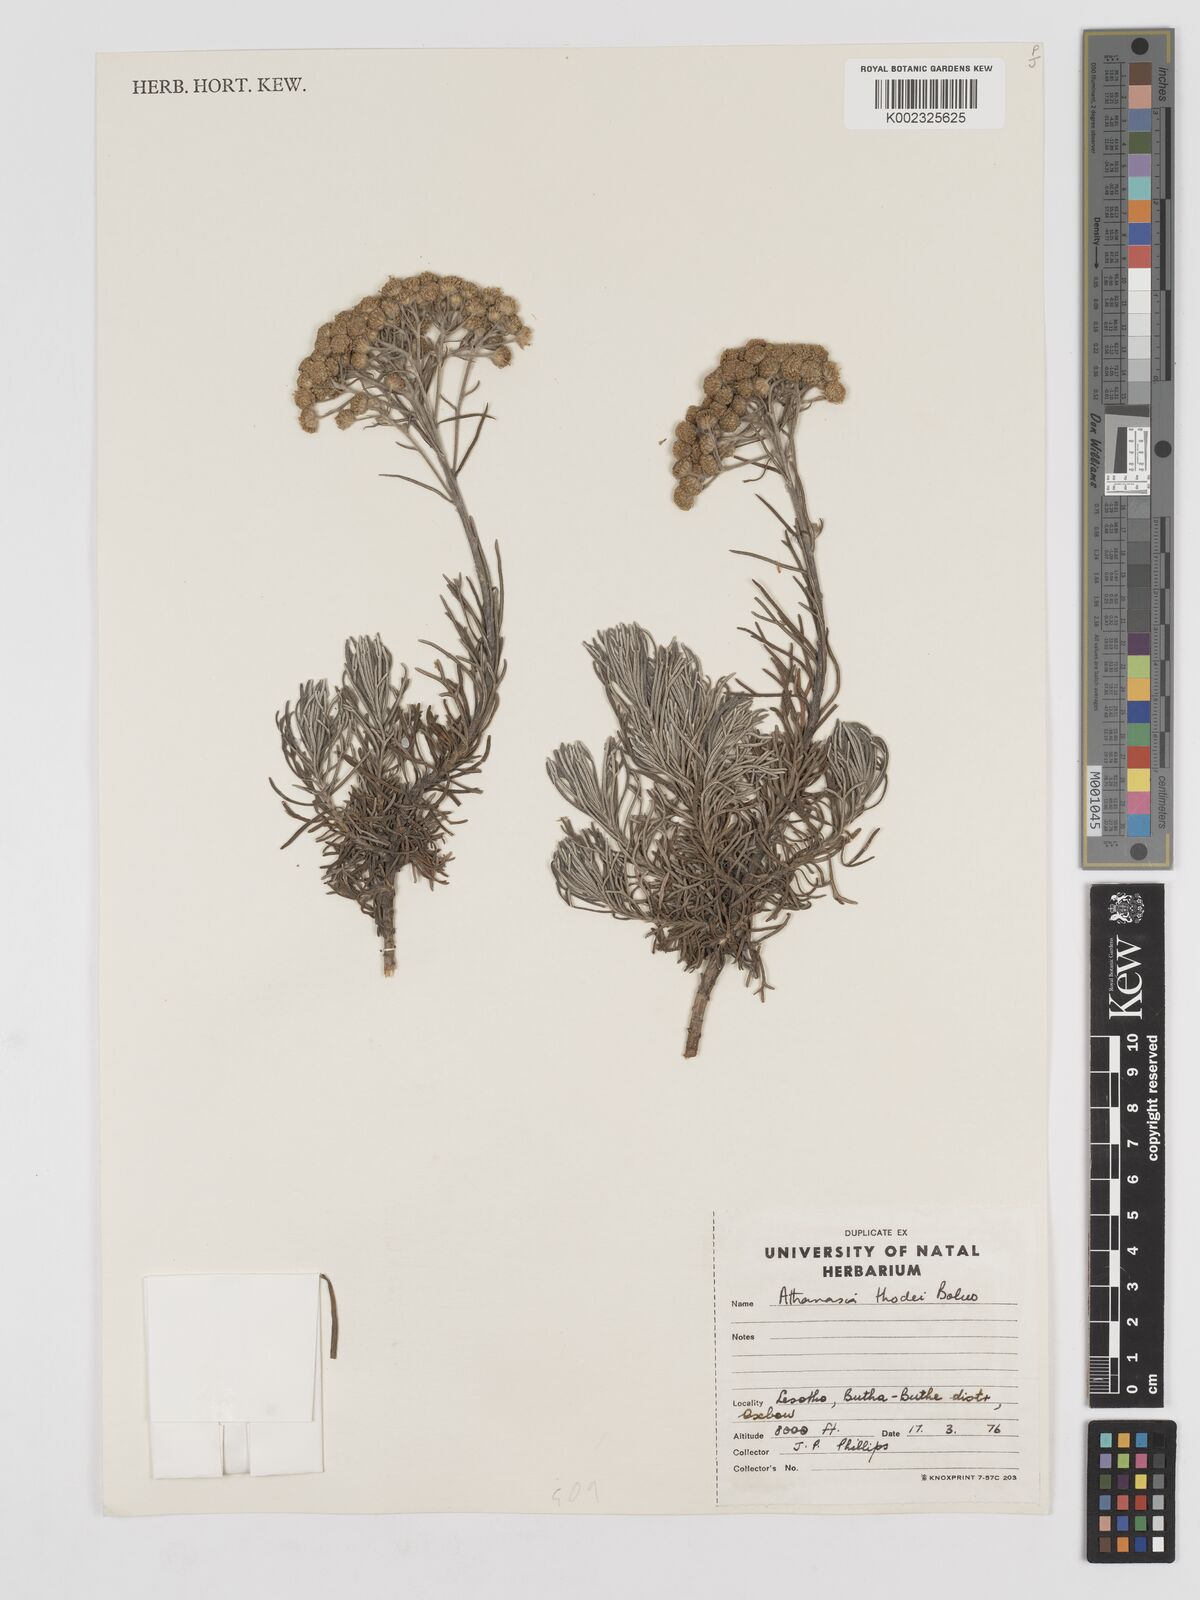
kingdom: Plantae
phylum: Tracheophyta
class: Magnoliopsida
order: Asterales
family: Asteraceae
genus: Inulanthera
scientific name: Inulanthera thodei
